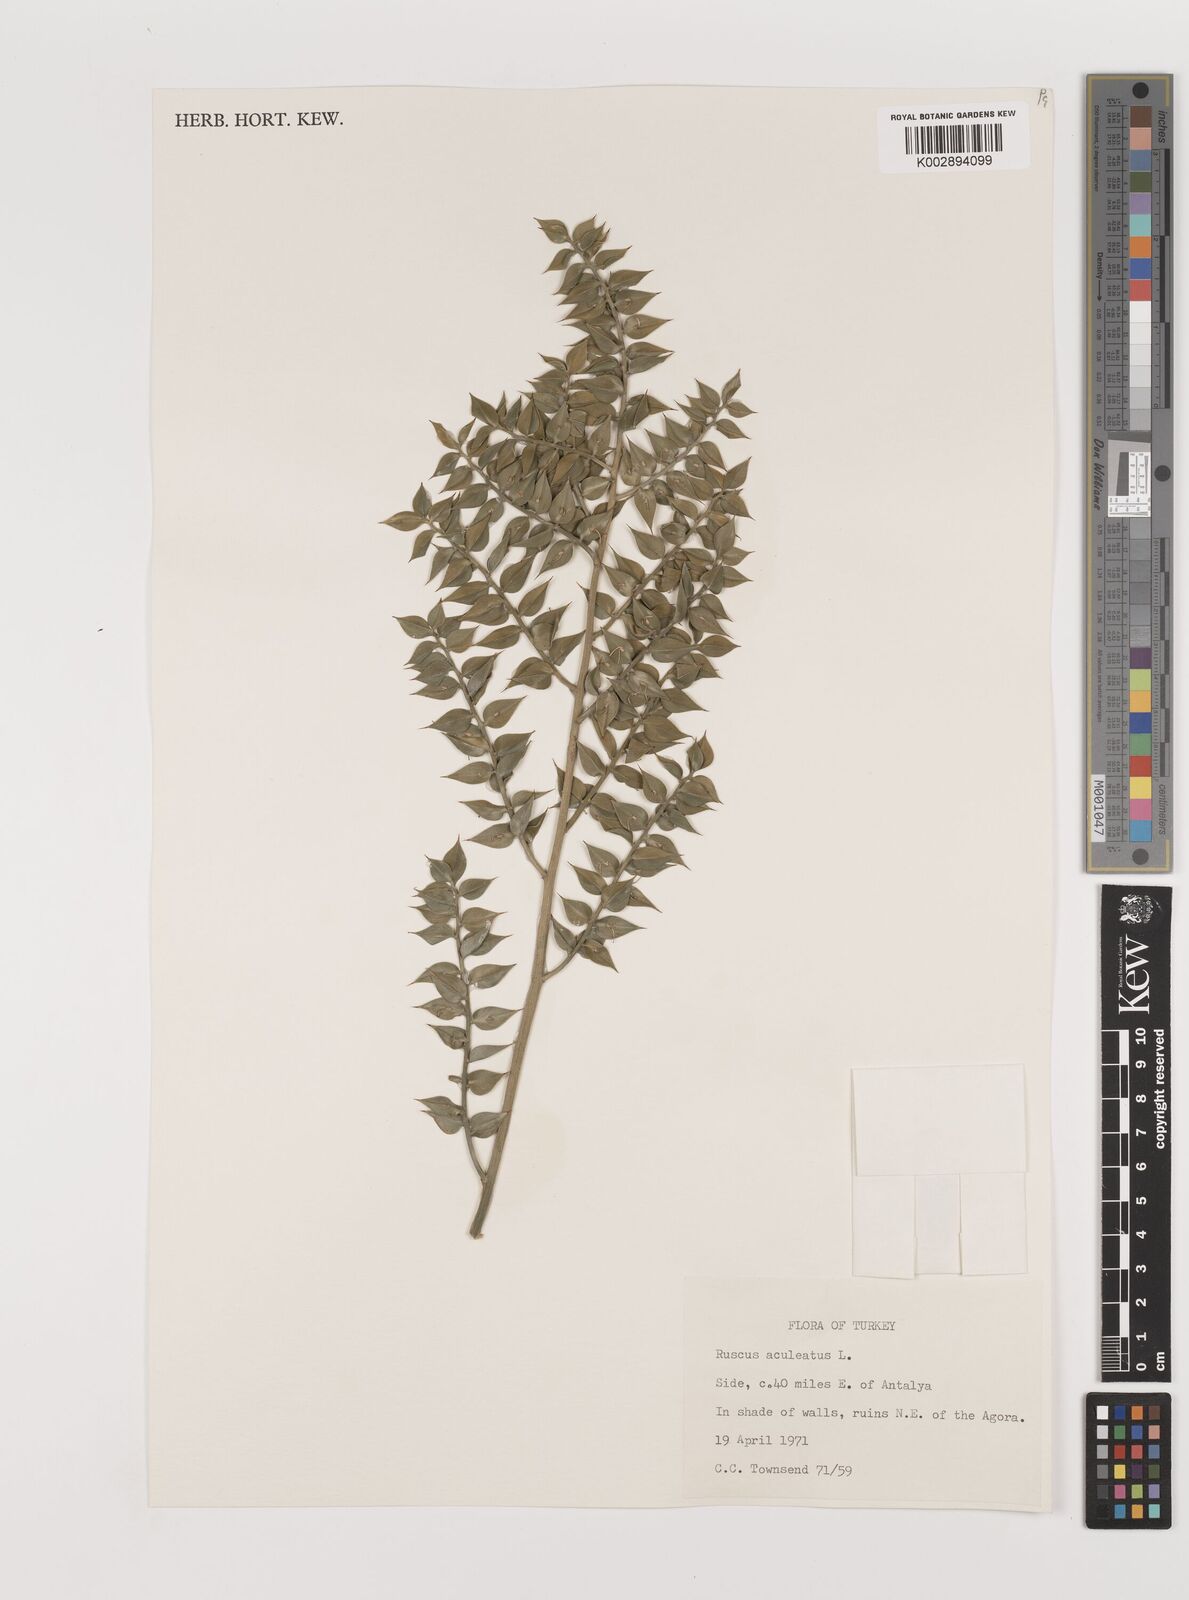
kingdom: Plantae
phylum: Tracheophyta
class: Liliopsida
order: Asparagales
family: Asparagaceae
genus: Ruscus
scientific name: Ruscus aculeatus
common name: Butcher's-broom
